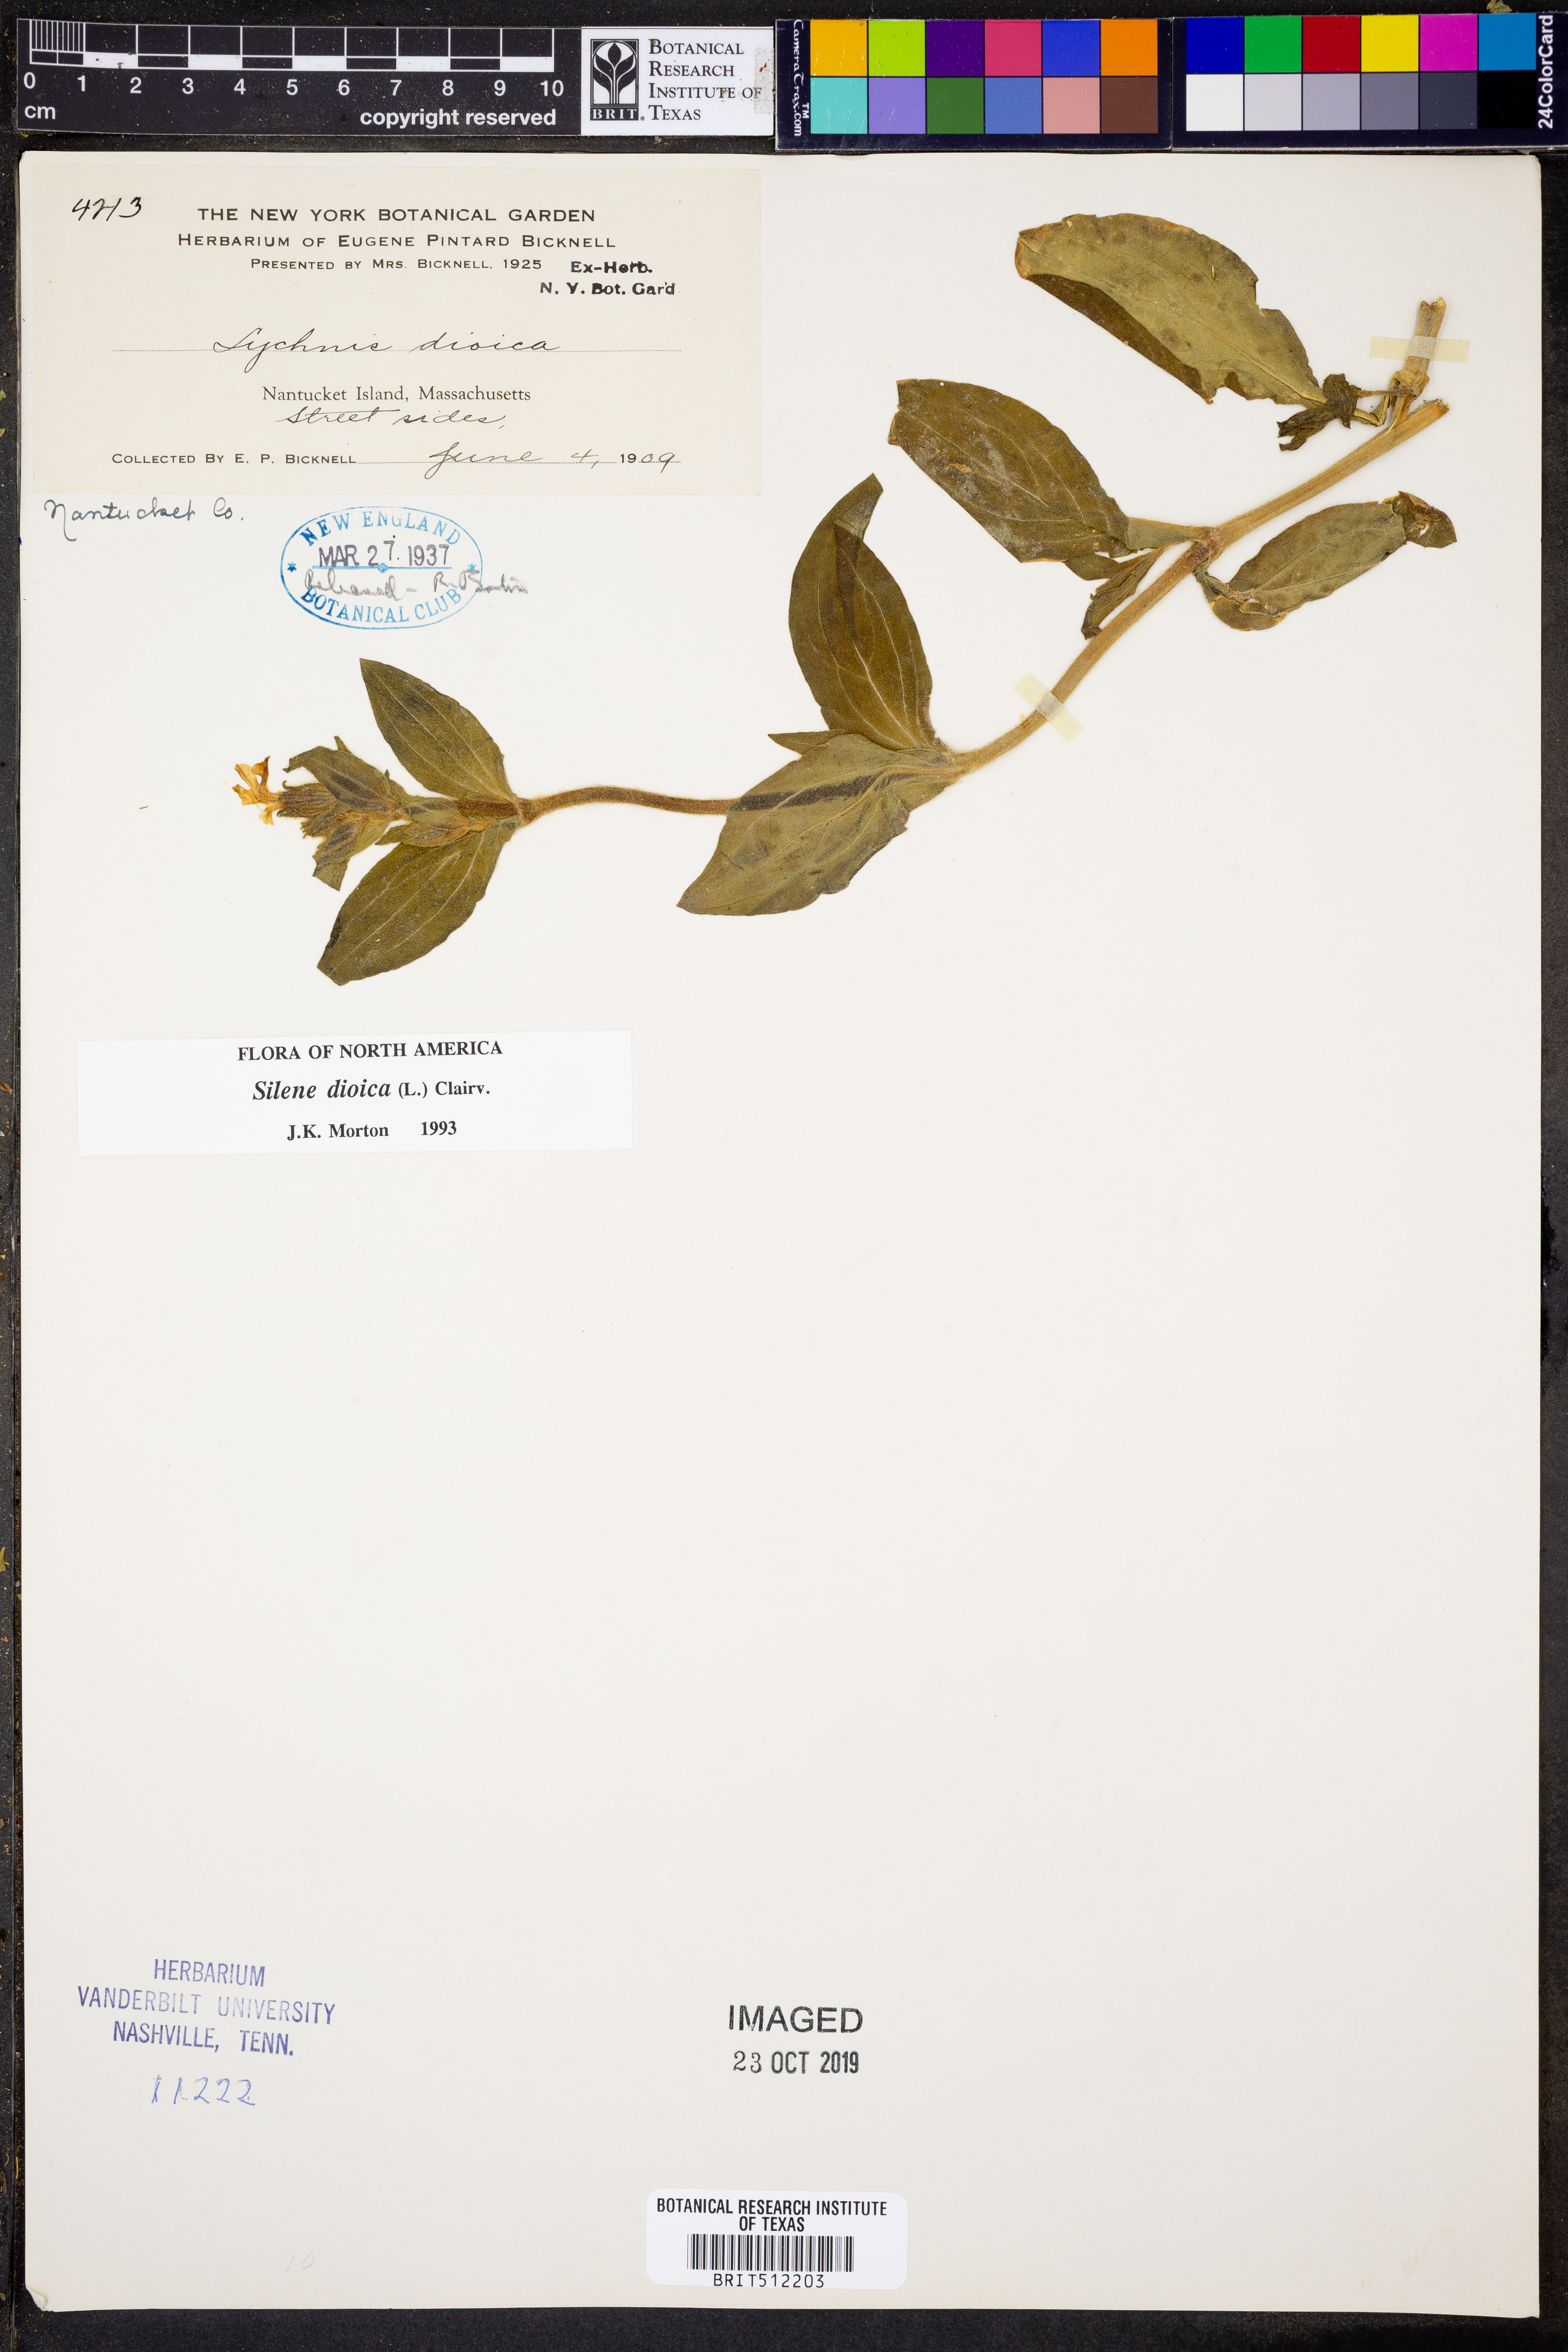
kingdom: Plantae
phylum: Tracheophyta
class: Magnoliopsida
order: Caryophyllales
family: Caryophyllaceae
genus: Silene
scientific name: Silene dioica
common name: Red campion
